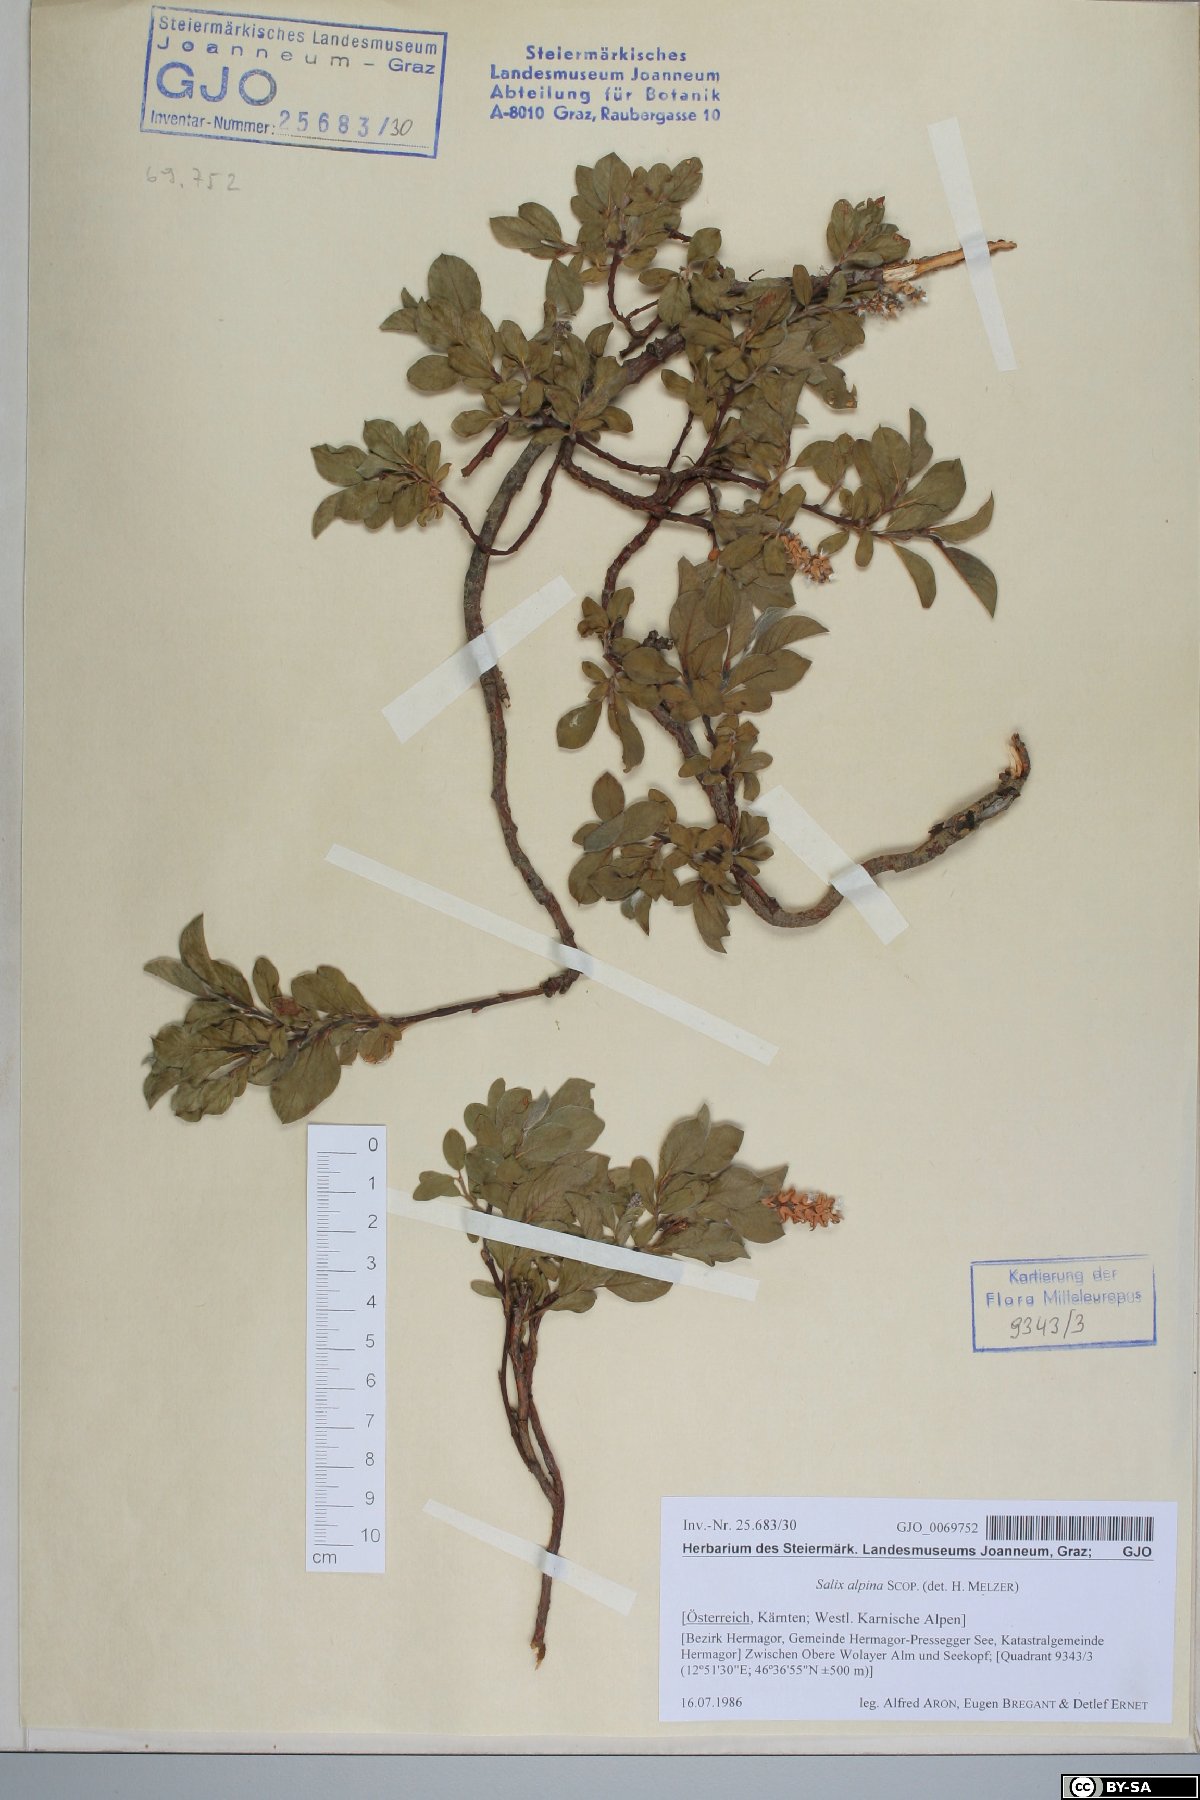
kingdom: Plantae
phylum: Tracheophyta
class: Magnoliopsida
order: Malpighiales
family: Salicaceae
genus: Salix
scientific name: Salix alpina
